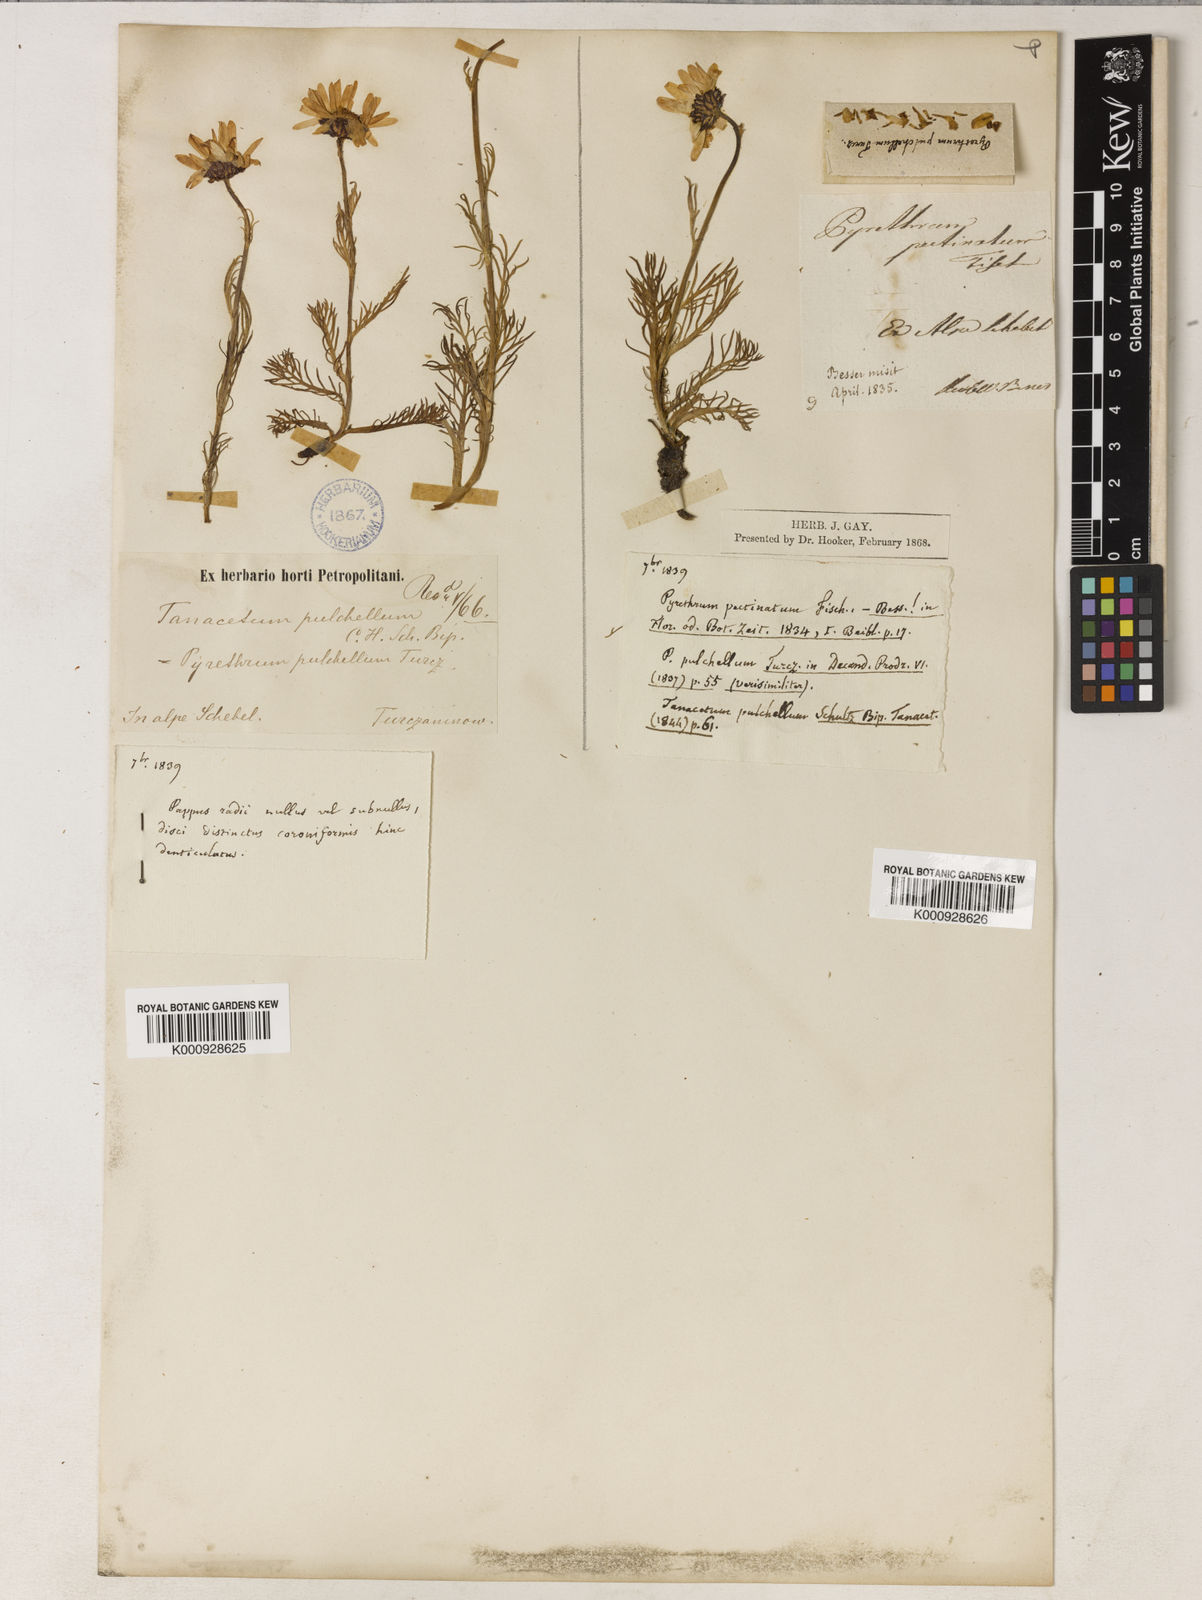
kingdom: Plantae
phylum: Tracheophyta
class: Magnoliopsida
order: Asterales
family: Asteraceae
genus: Tanacetum
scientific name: Tanacetum pulchrum
